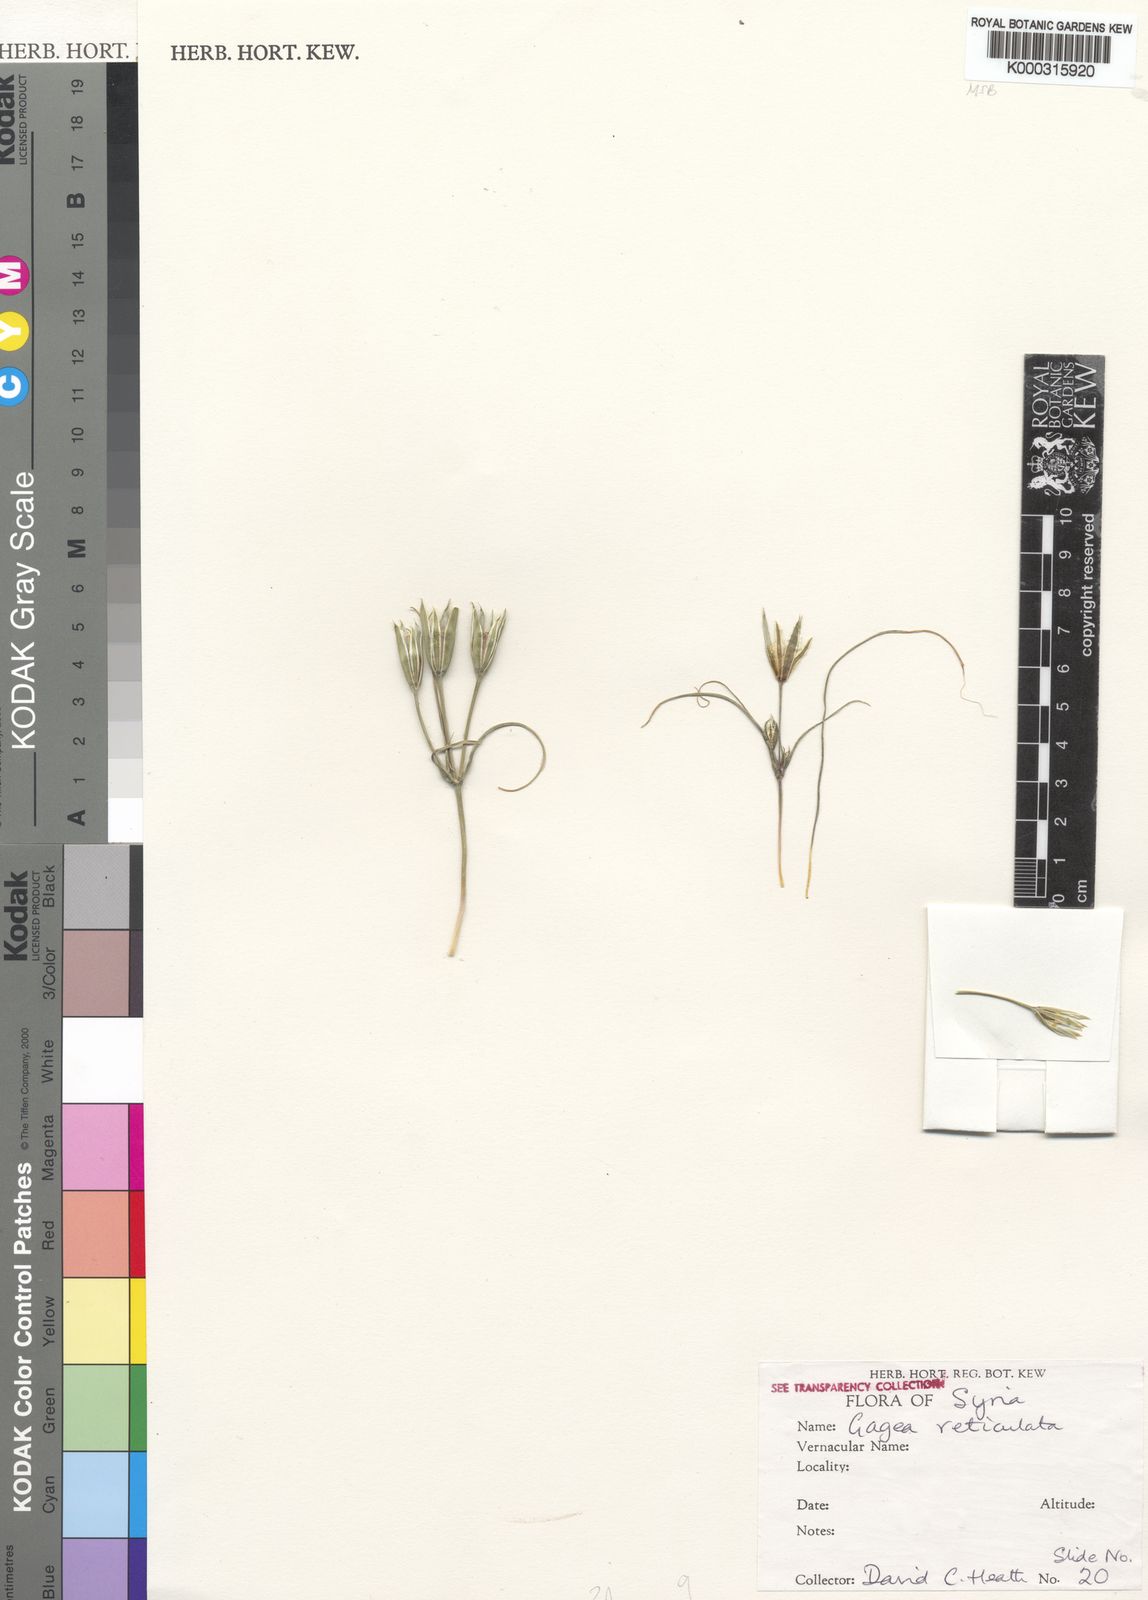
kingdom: Plantae
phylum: Tracheophyta
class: Liliopsida
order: Liliales
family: Liliaceae
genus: Gagea
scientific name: Gagea reticulata
